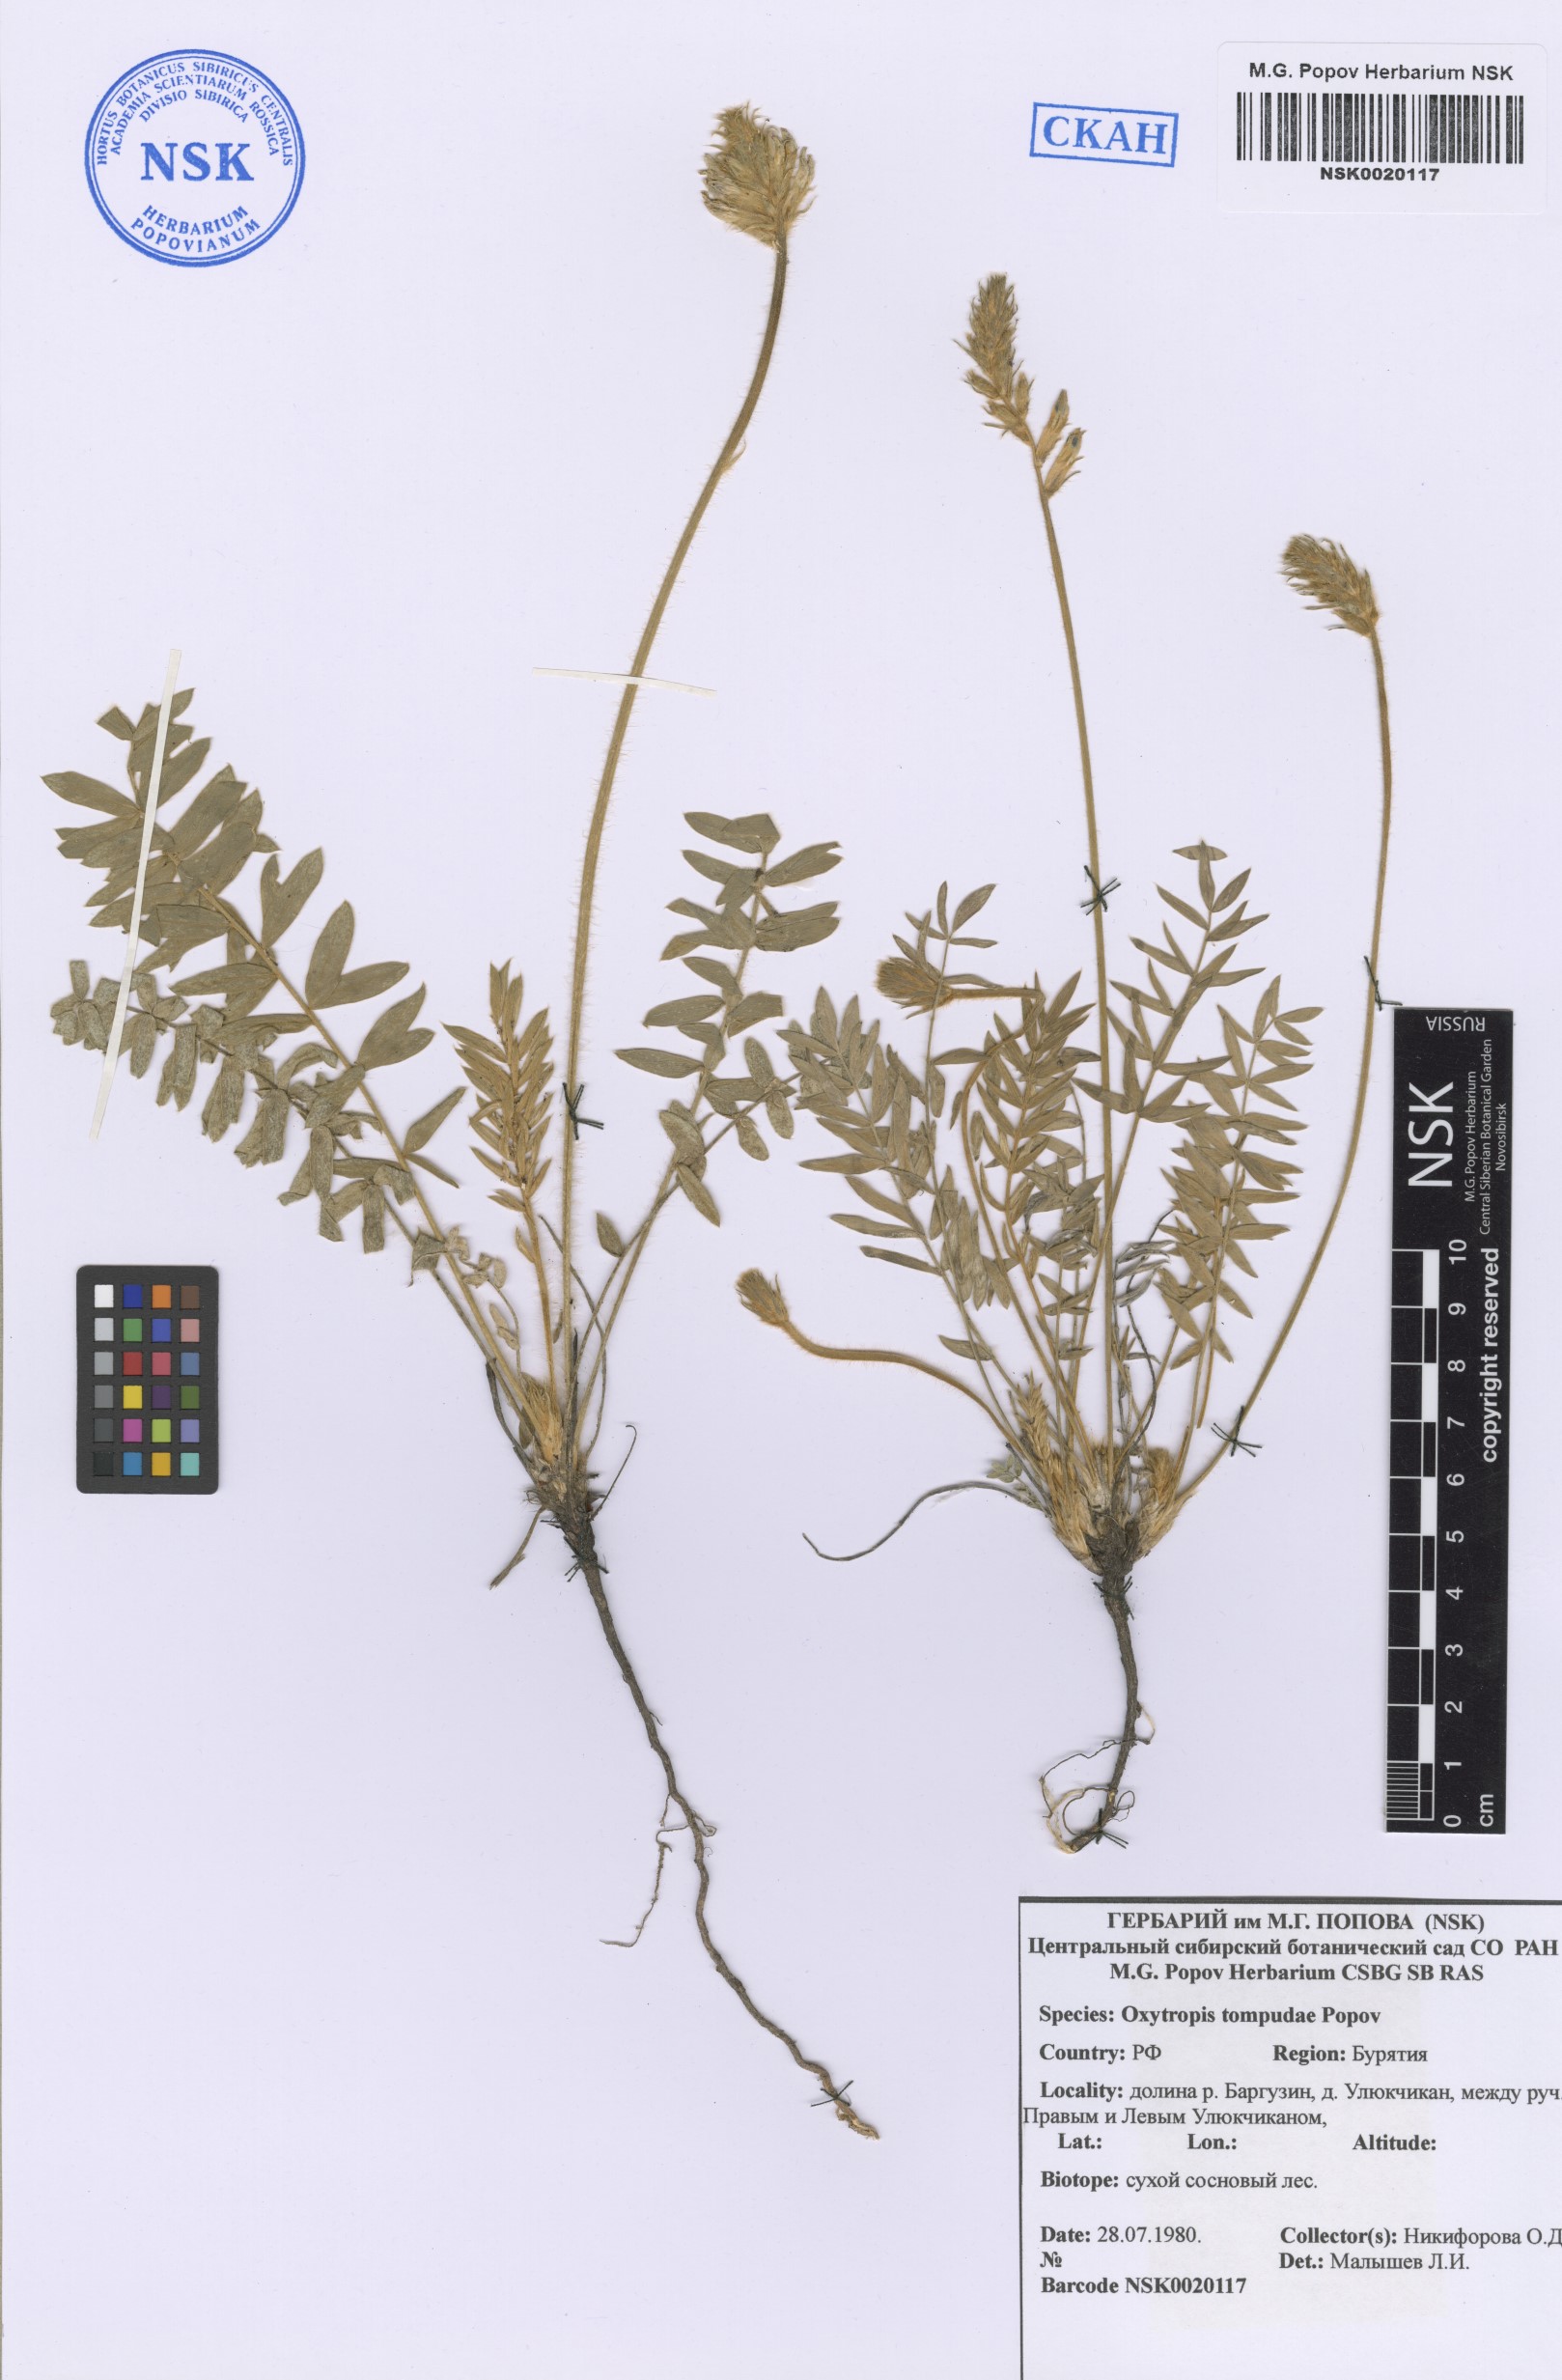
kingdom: Plantae
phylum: Tracheophyta
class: Magnoliopsida
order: Fabales
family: Fabaceae
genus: Oxytropis
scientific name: Oxytropis tompudae
